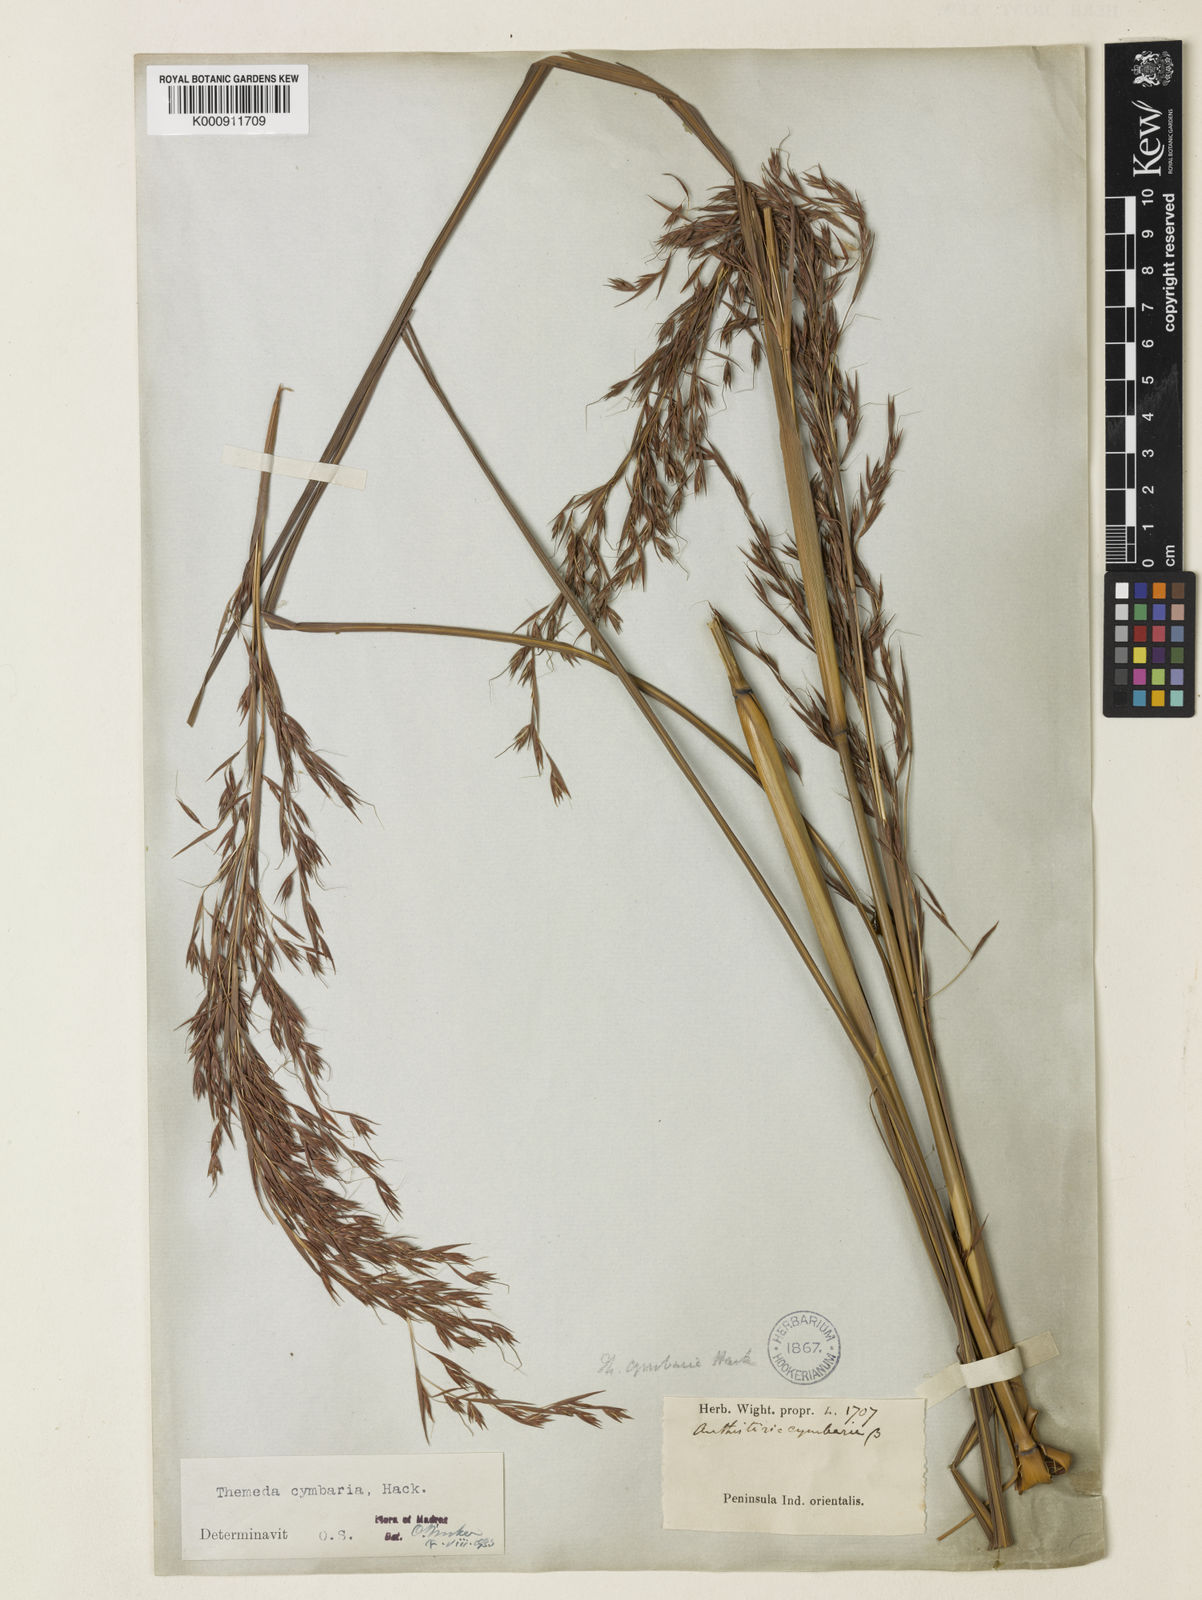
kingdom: Plantae
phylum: Tracheophyta
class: Liliopsida
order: Poales
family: Poaceae
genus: Themeda
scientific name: Themeda cymbaria
